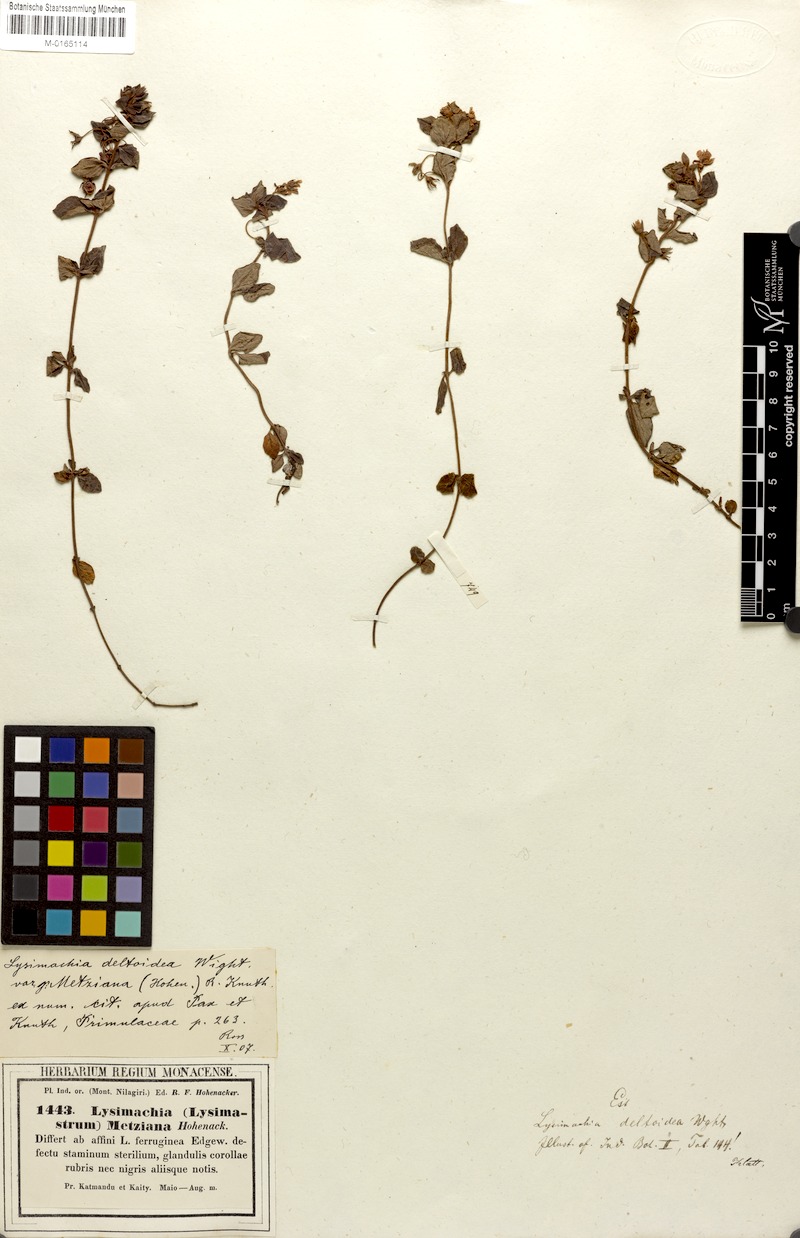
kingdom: Plantae
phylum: Tracheophyta
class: Magnoliopsida
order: Ericales
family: Primulaceae
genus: Lysimachia
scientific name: Lysimachia deltoidea
